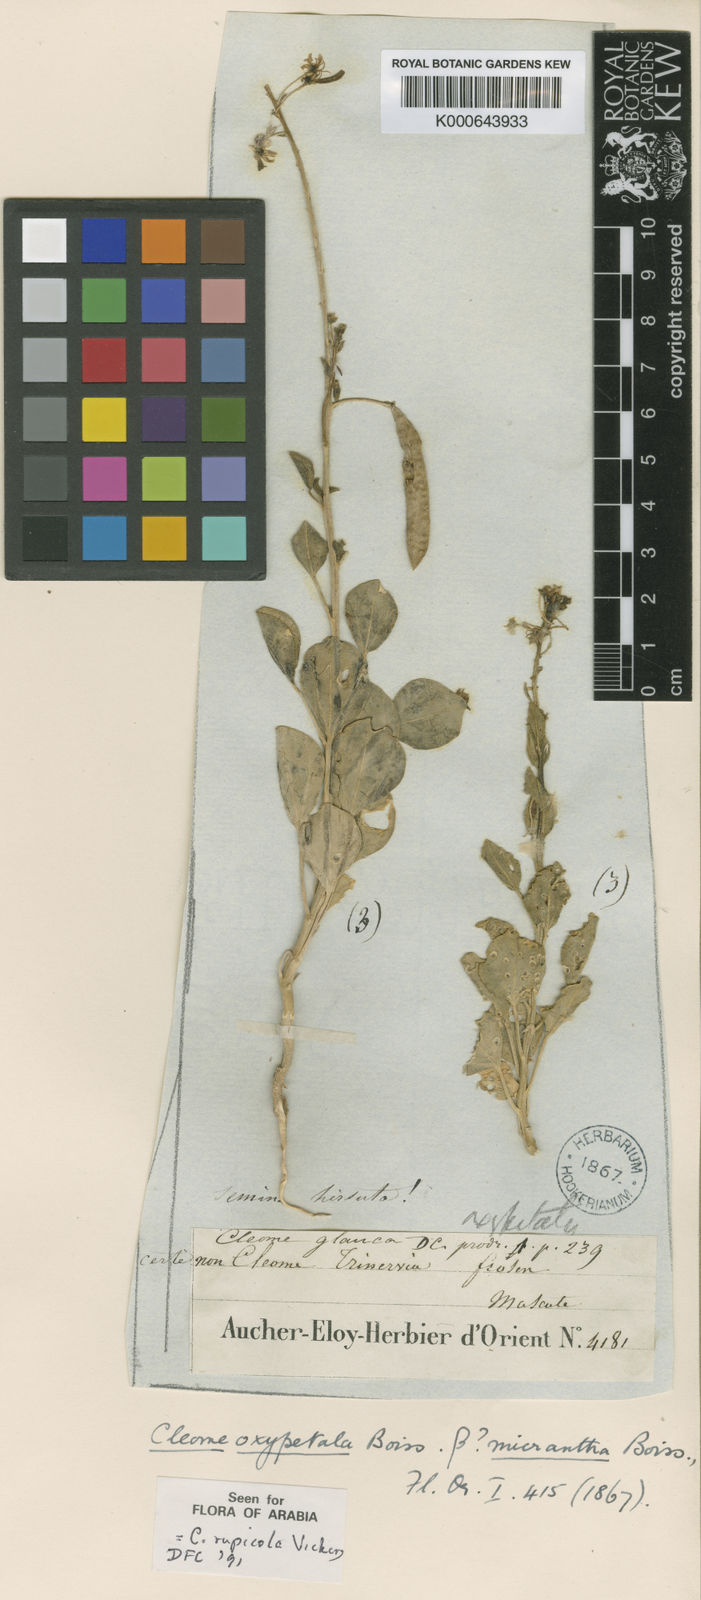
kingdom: Plantae
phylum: Tracheophyta
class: Magnoliopsida
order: Brassicales
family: Cleomaceae
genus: Cleome
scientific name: Cleome rupicola
